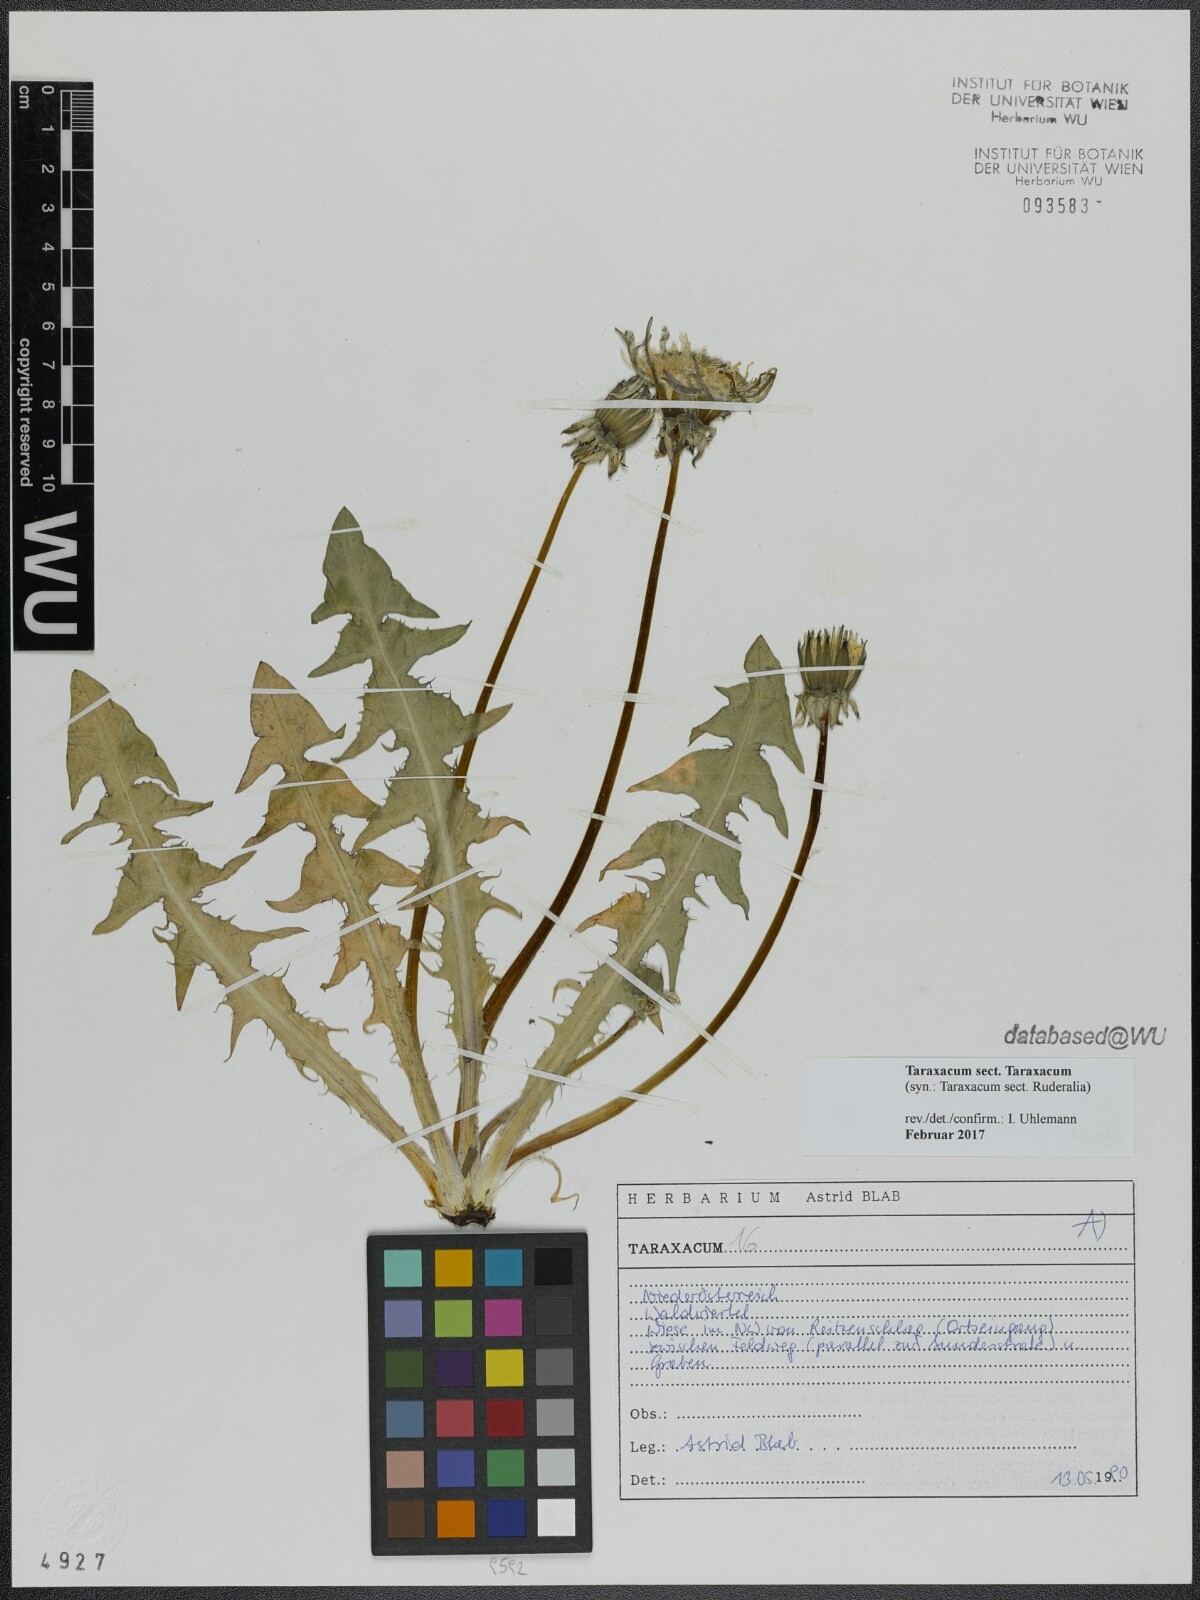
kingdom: Plantae
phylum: Tracheophyta
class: Magnoliopsida
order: Asterales
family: Asteraceae
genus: Taraxacum
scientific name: Taraxacum
